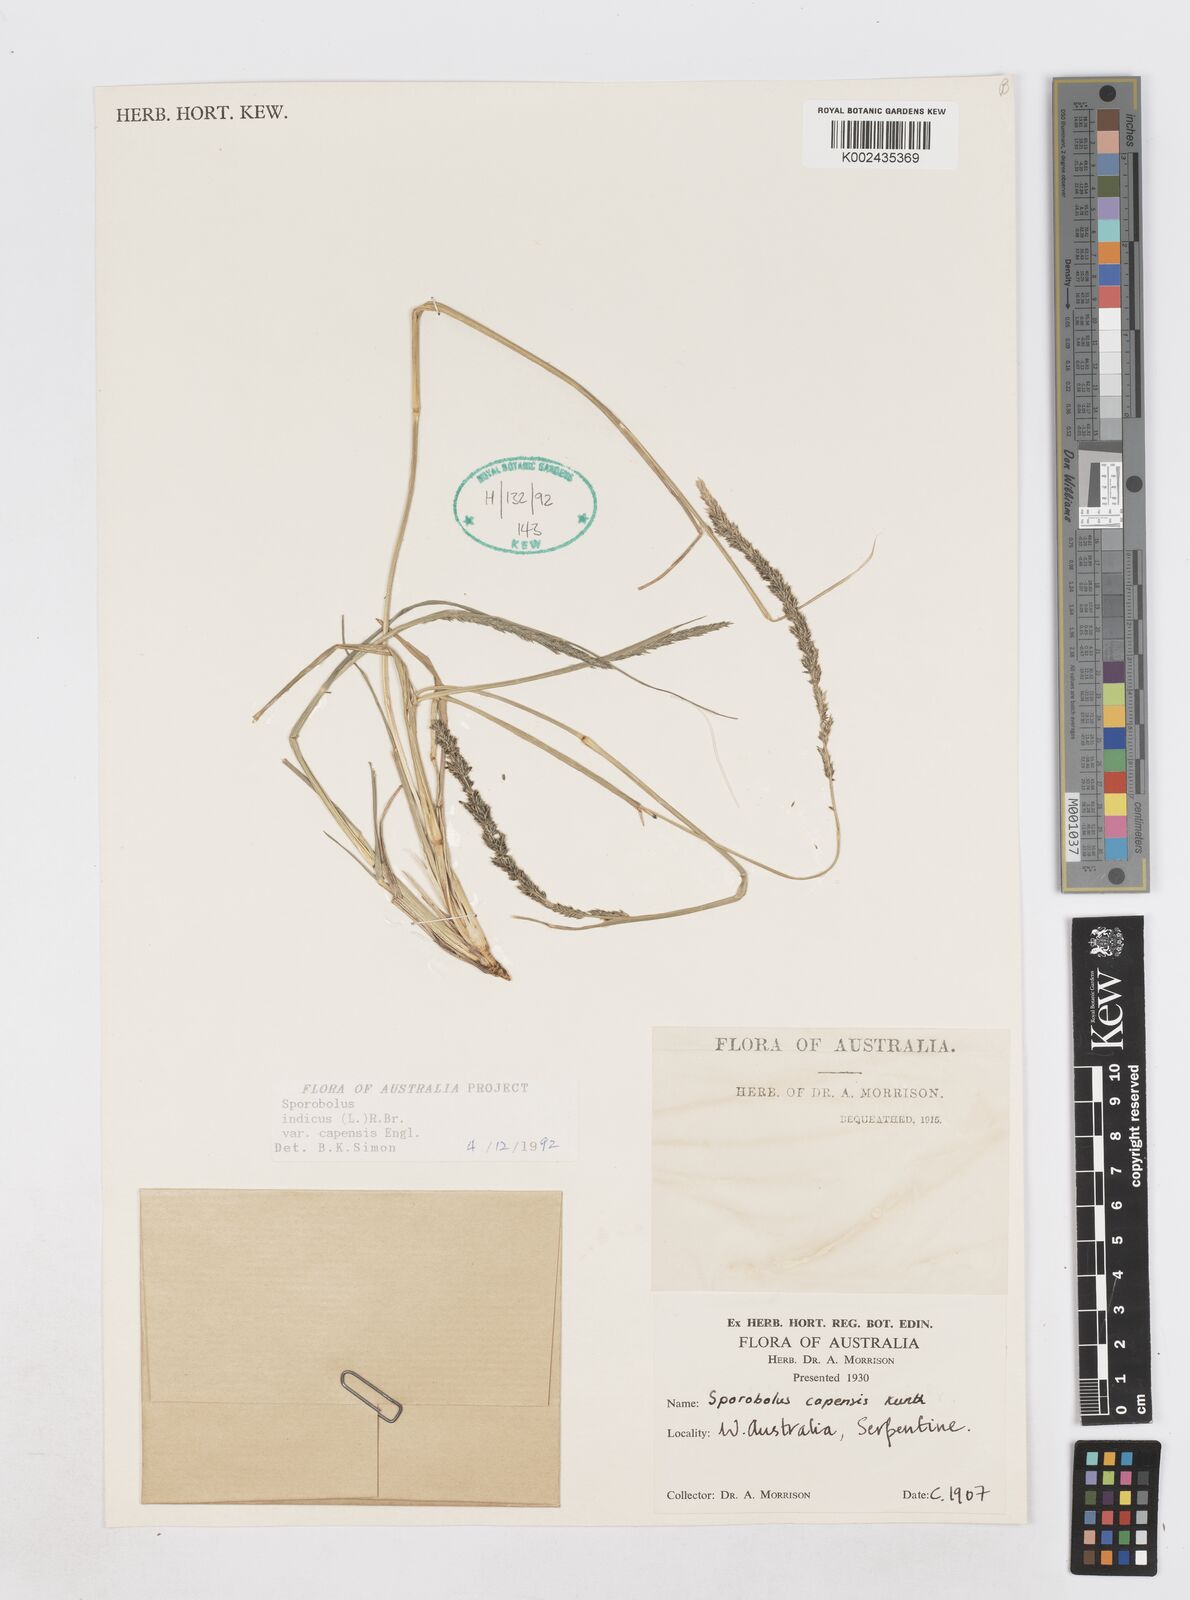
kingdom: Plantae
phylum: Tracheophyta
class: Liliopsida
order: Poales
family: Poaceae
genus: Sporobolus
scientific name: Sporobolus africanus
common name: African dropseed
